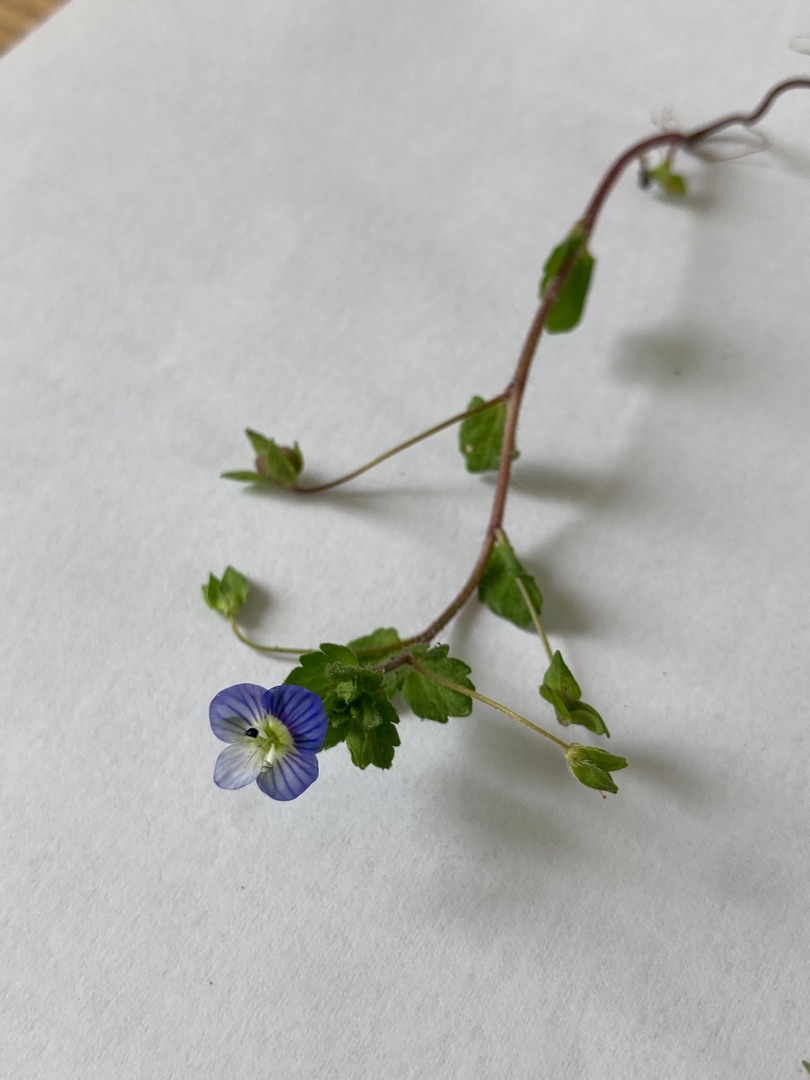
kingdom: Plantae
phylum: Tracheophyta
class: Magnoliopsida
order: Lamiales
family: Plantaginaceae
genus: Veronica
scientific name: Veronica persica
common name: Storkronet ærenpris
